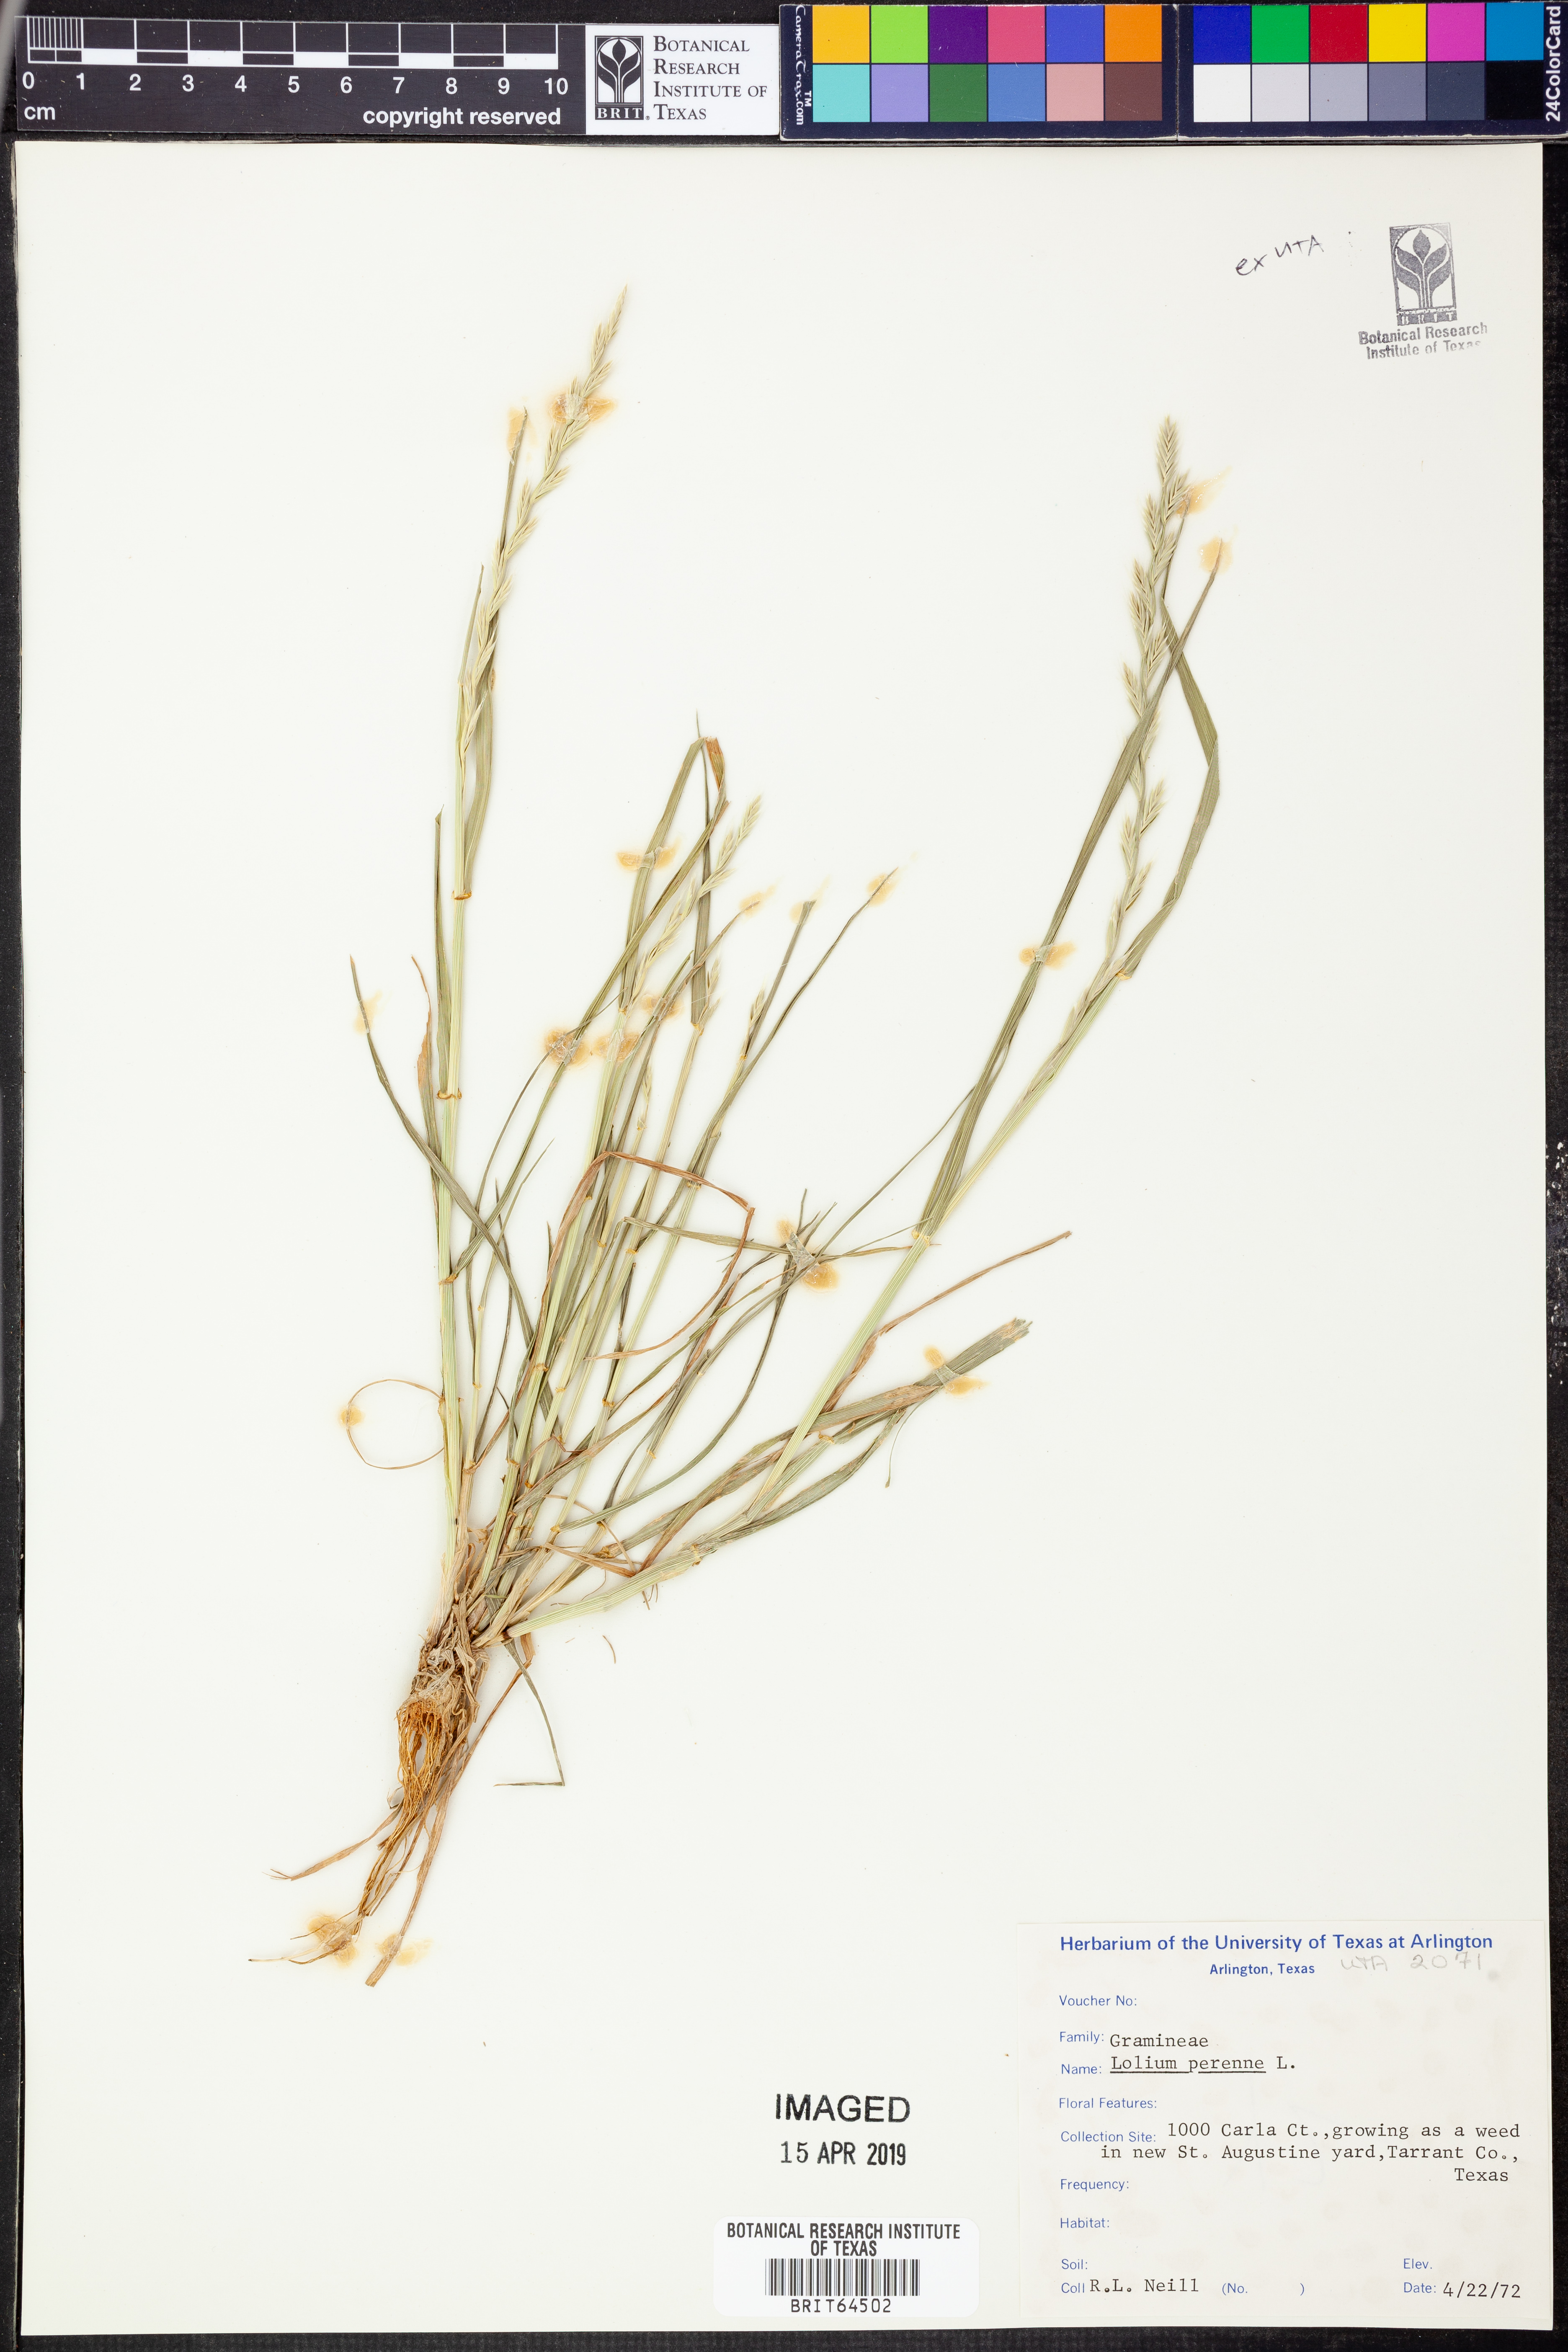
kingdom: Plantae
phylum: Tracheophyta
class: Liliopsida
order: Poales
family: Poaceae
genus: Lolium
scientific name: Lolium perenne
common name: Perennial ryegrass
